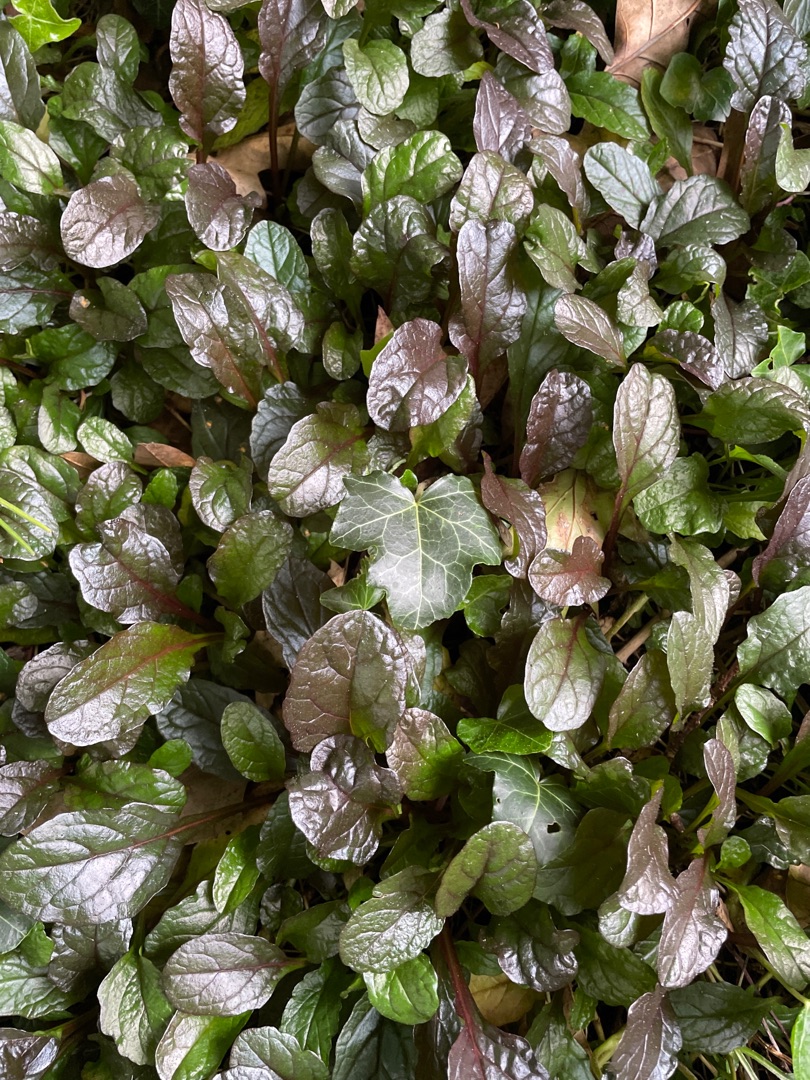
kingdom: Plantae
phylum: Tracheophyta
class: Magnoliopsida
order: Lamiales
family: Lamiaceae
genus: Ajuga
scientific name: Ajuga reptans
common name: Krybende læbeløs
